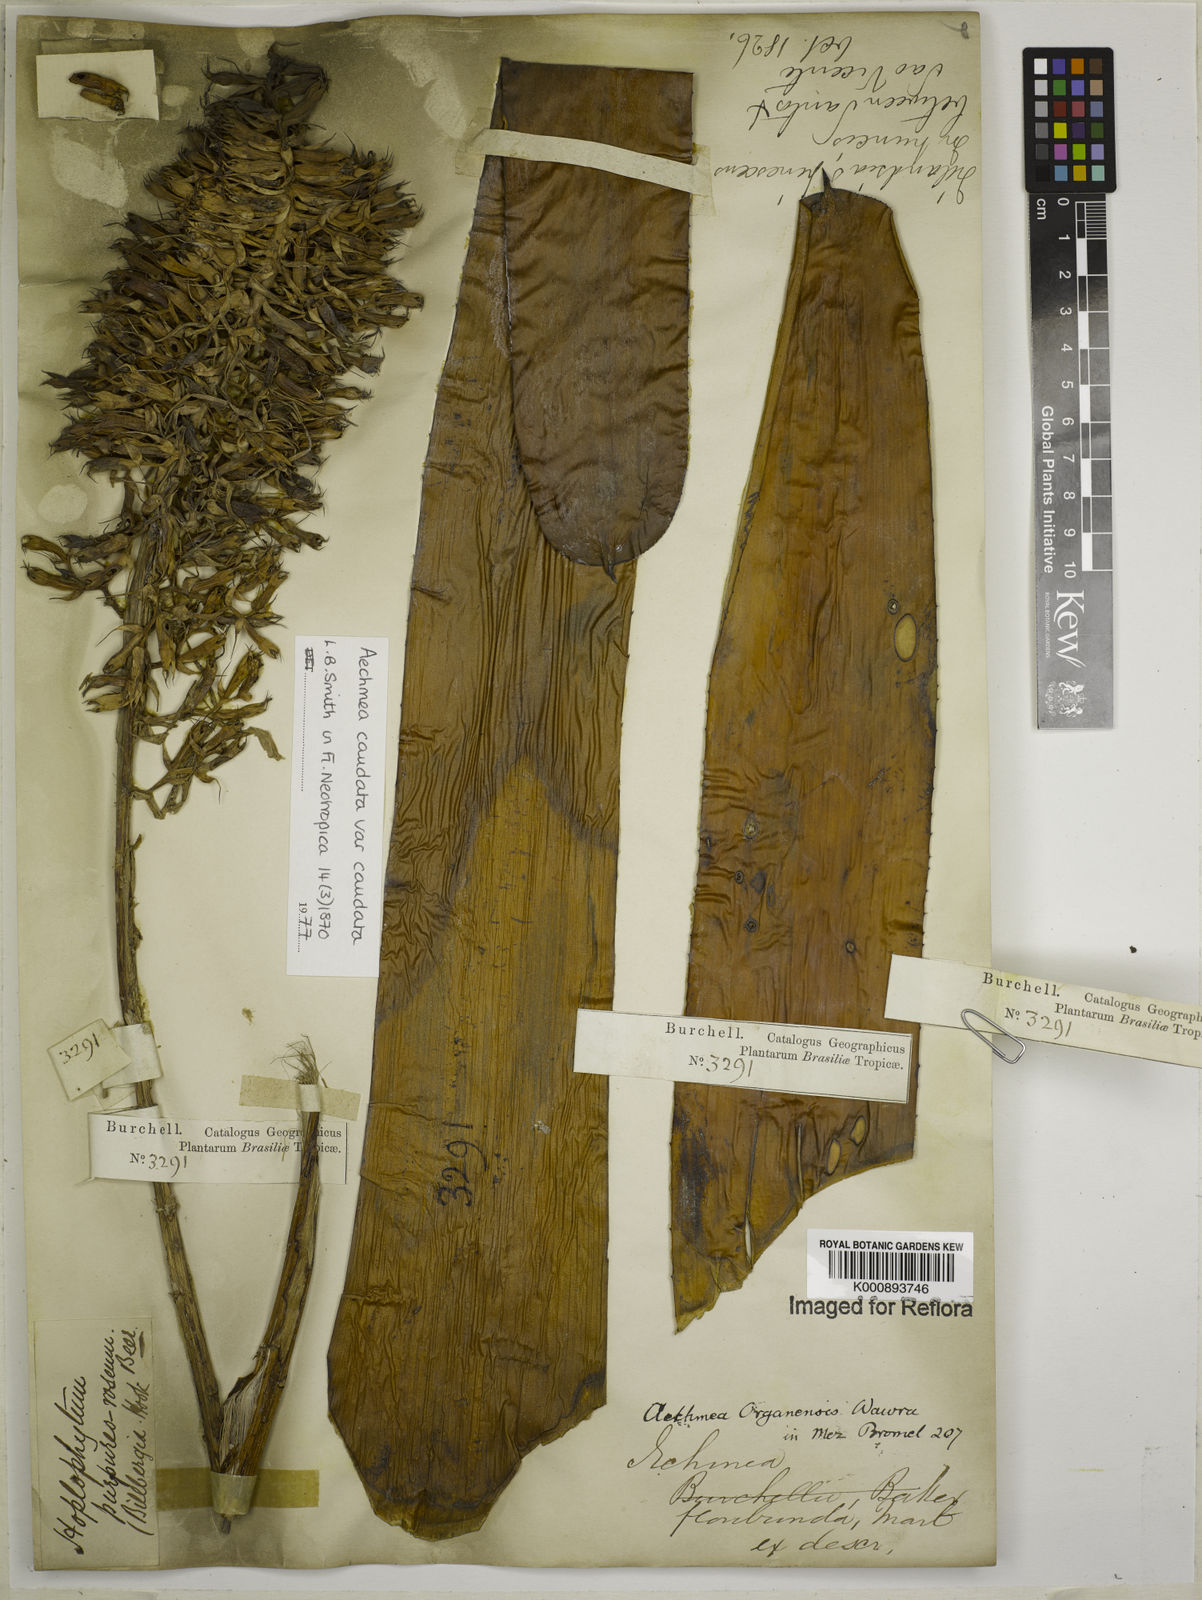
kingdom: Plantae
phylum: Tracheophyta
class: Liliopsida
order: Poales
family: Bromeliaceae
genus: Aechmea
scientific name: Aechmea caudata
